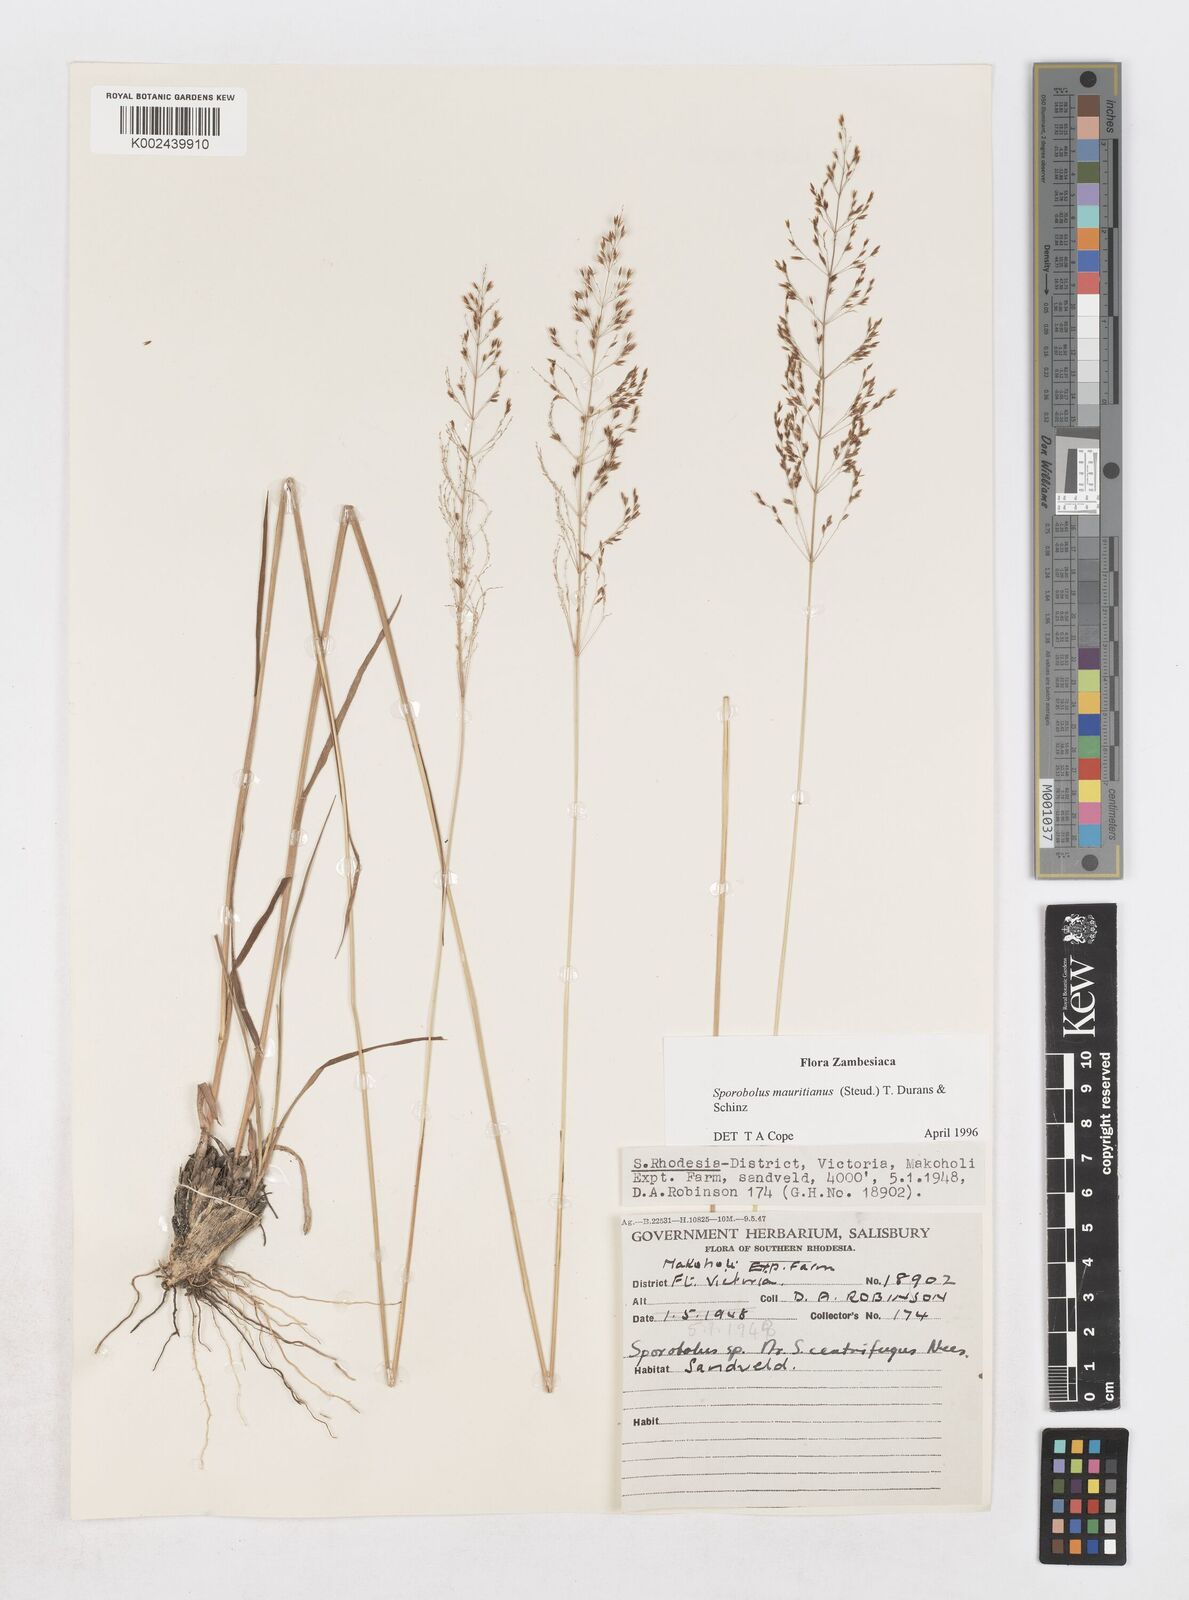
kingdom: Plantae
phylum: Tracheophyta
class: Liliopsida
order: Poales
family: Poaceae
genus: Sporobolus
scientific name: Sporobolus subulatus
